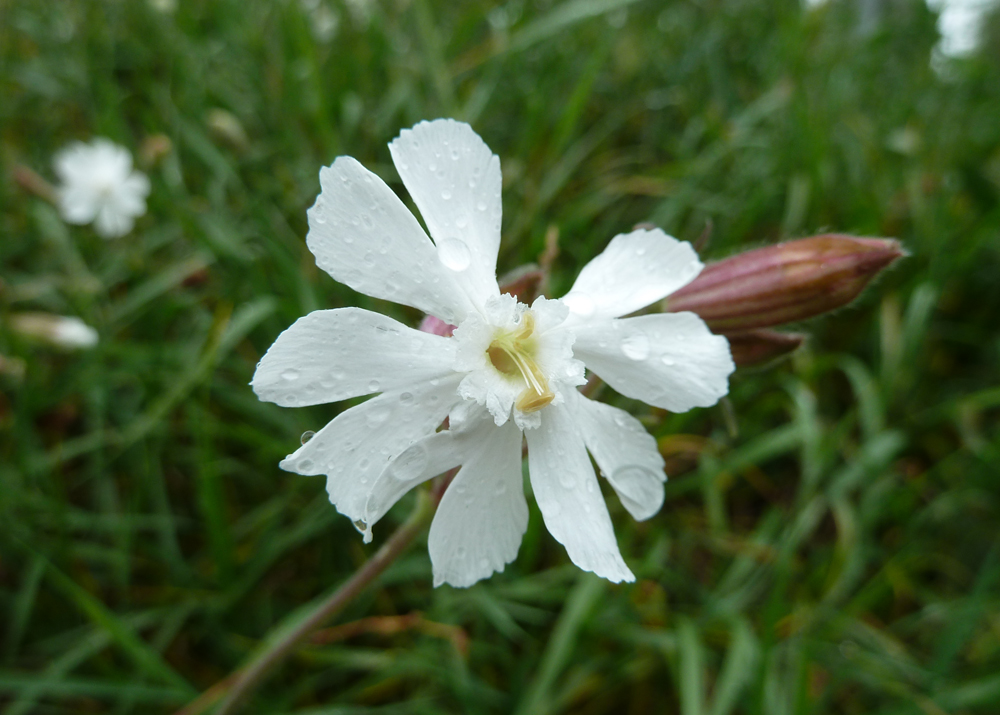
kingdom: Plantae
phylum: Tracheophyta
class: Magnoliopsida
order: Caryophyllales
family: Caryophyllaceae
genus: Silene
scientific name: Silene latifolia
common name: White campion
